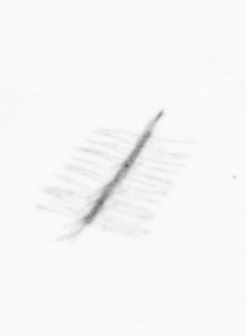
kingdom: Chromista
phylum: Ochrophyta
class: Bacillariophyceae
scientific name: Bacillariophyceae
